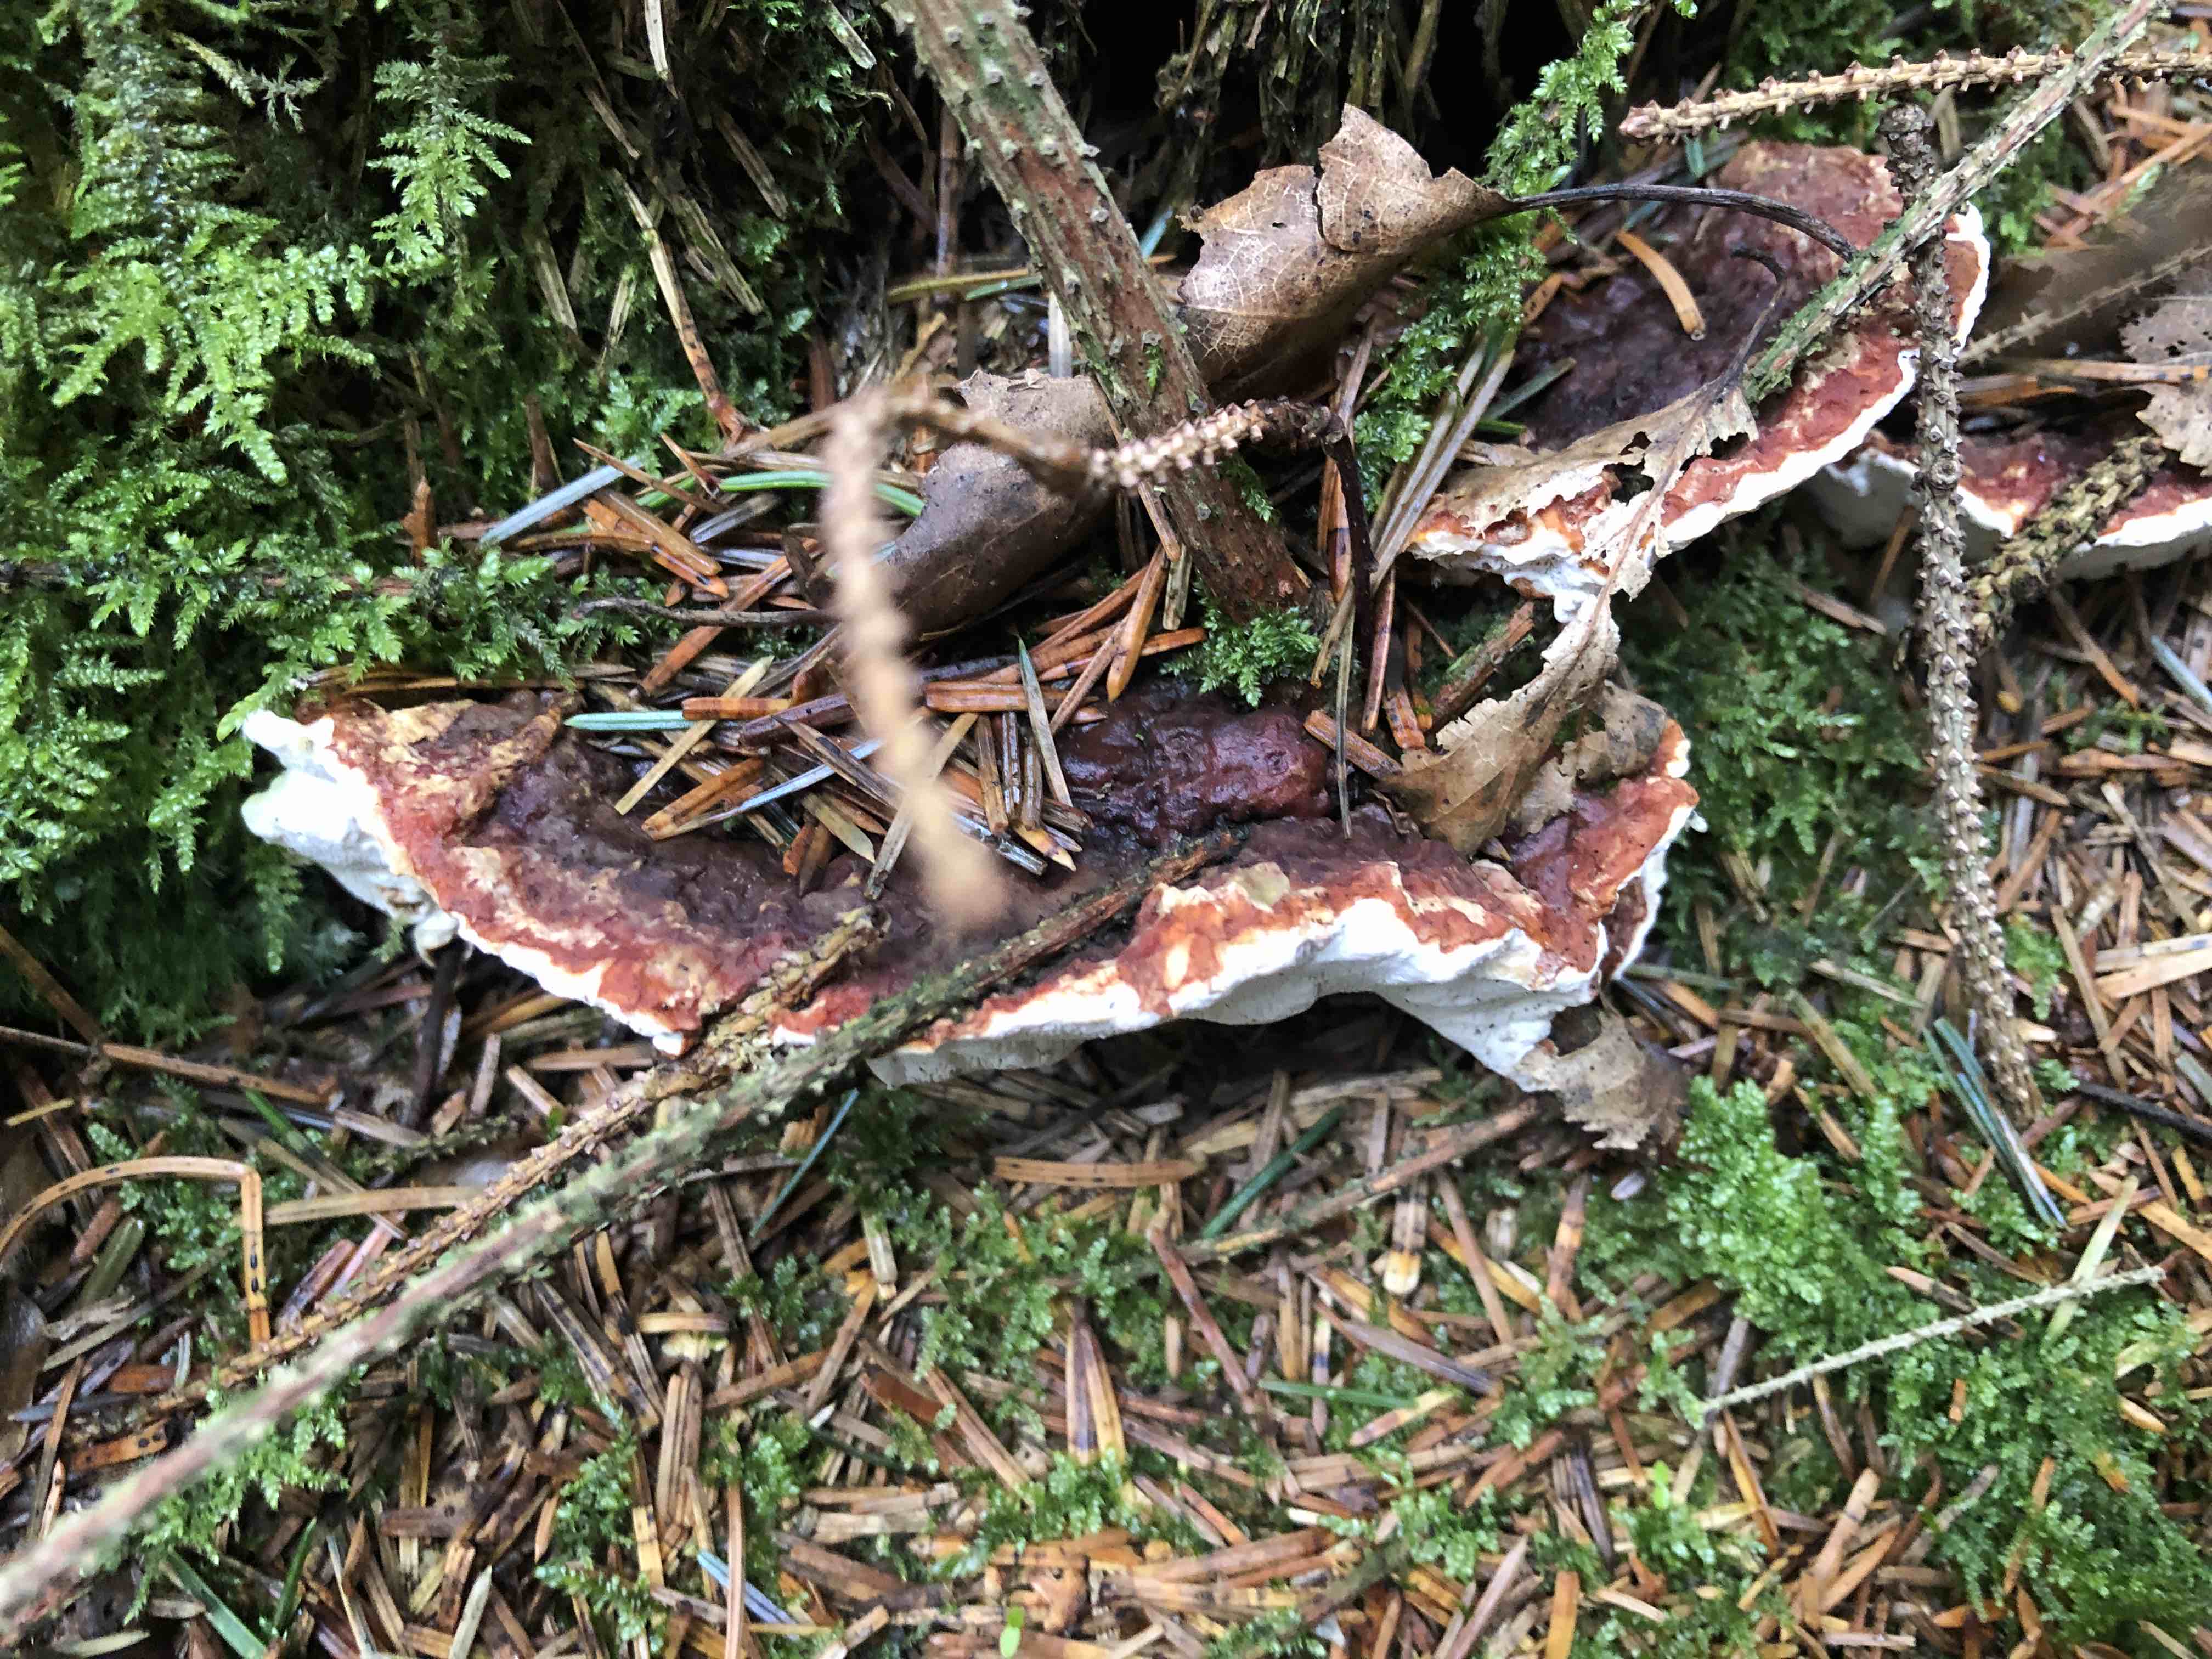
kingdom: Fungi
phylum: Basidiomycota
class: Agaricomycetes
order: Russulales
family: Bondarzewiaceae
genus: Heterobasidion
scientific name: Heterobasidion annosum
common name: almindelig rodfordærver
